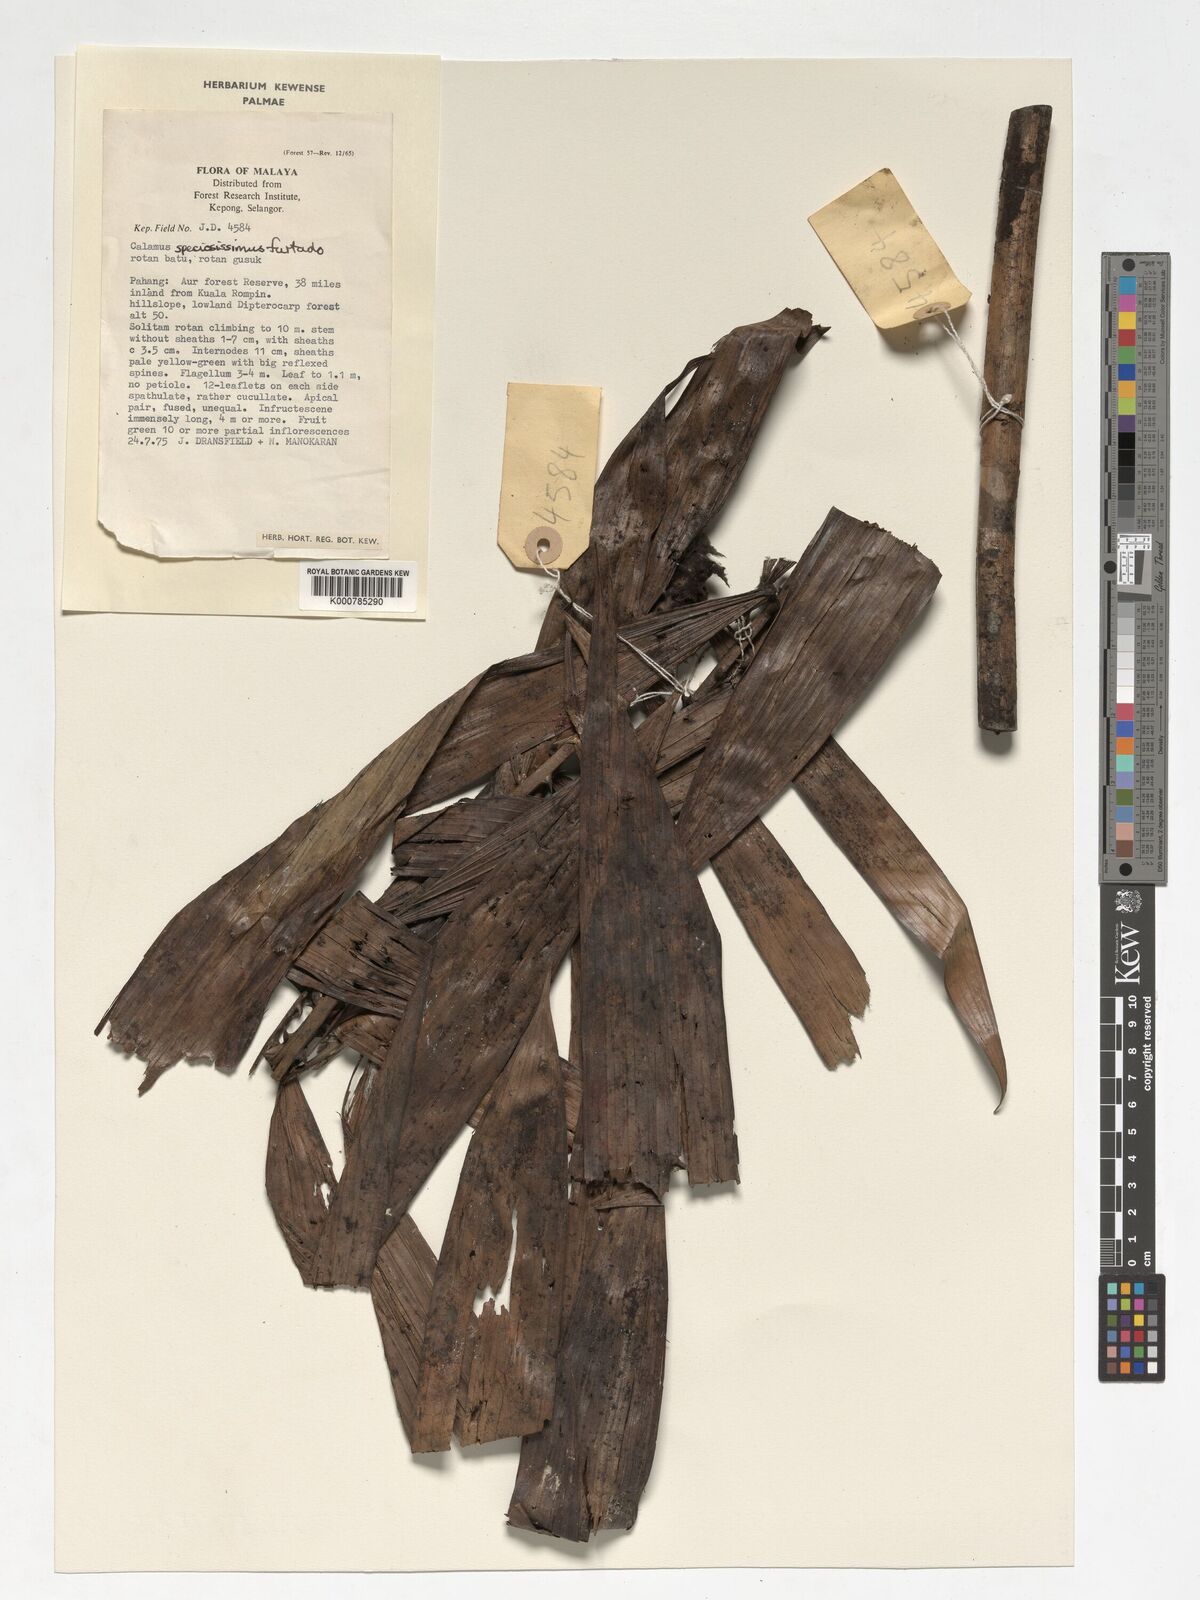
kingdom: Plantae
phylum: Tracheophyta
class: Liliopsida
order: Arecales
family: Arecaceae
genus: Calamus
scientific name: Calamus micranthus
